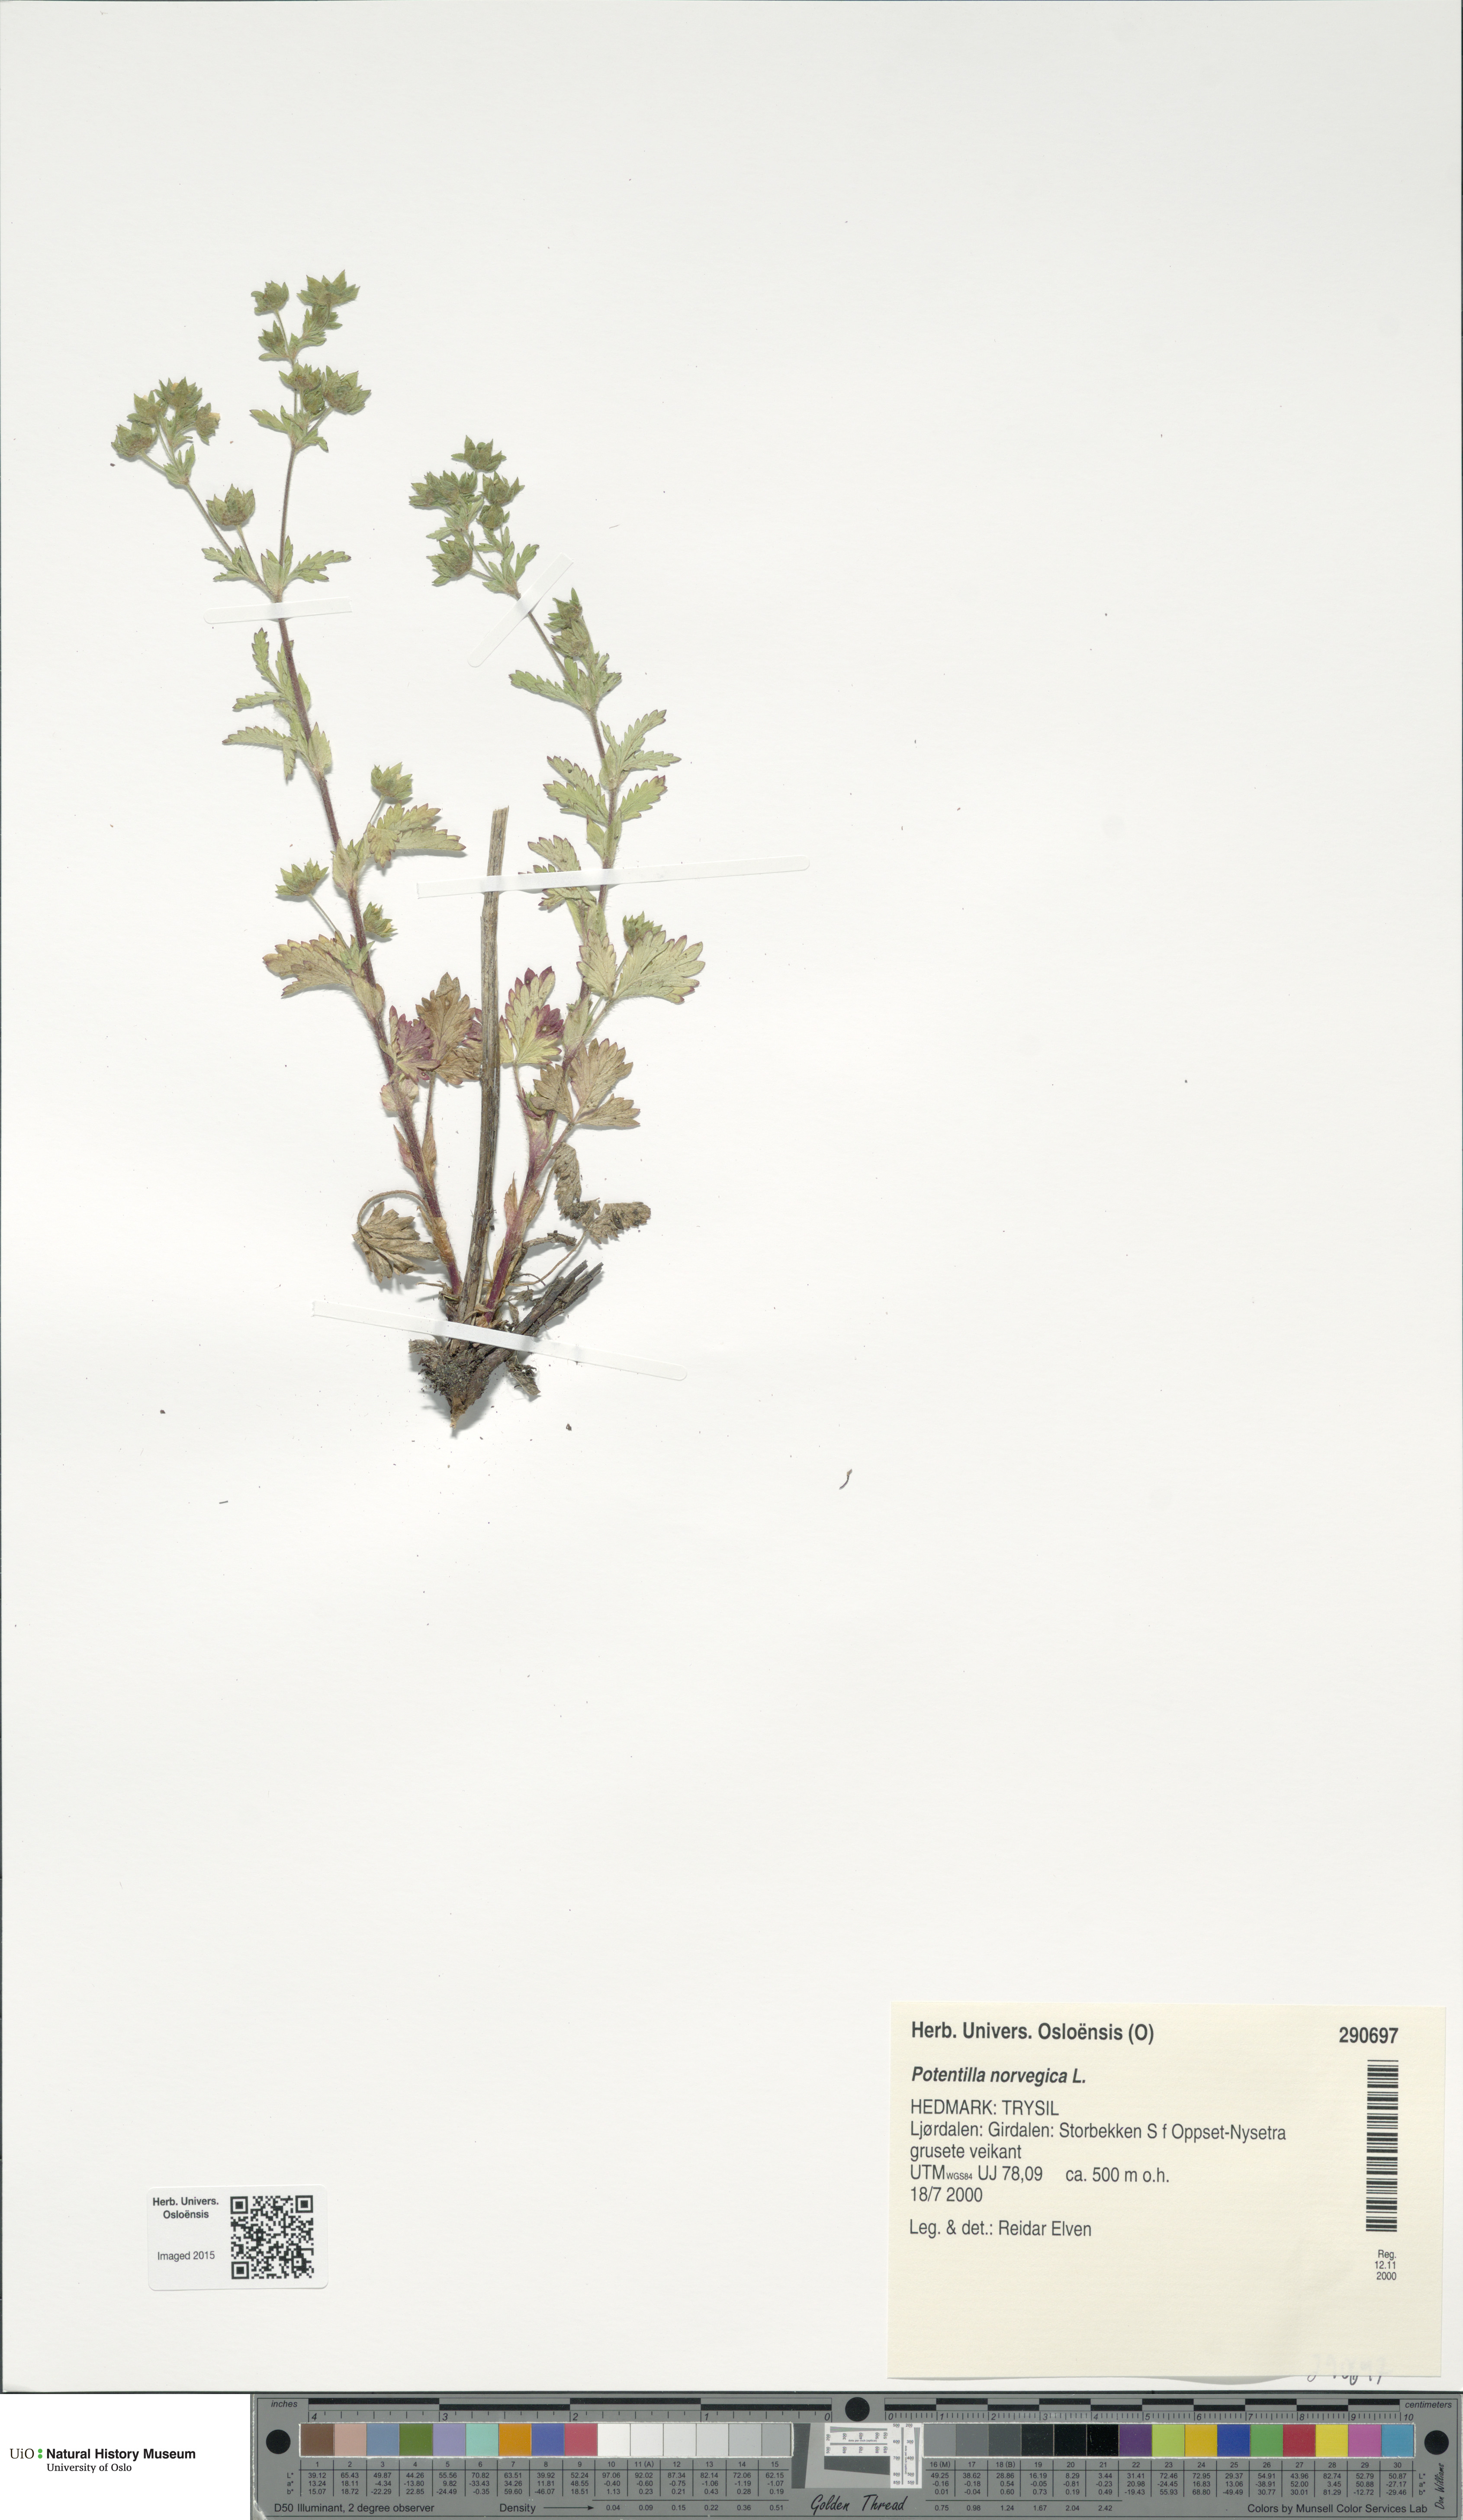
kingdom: Plantae
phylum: Tracheophyta
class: Magnoliopsida
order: Rosales
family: Rosaceae
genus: Potentilla
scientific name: Potentilla norvegica
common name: Ternate-leaved cinquefoil
